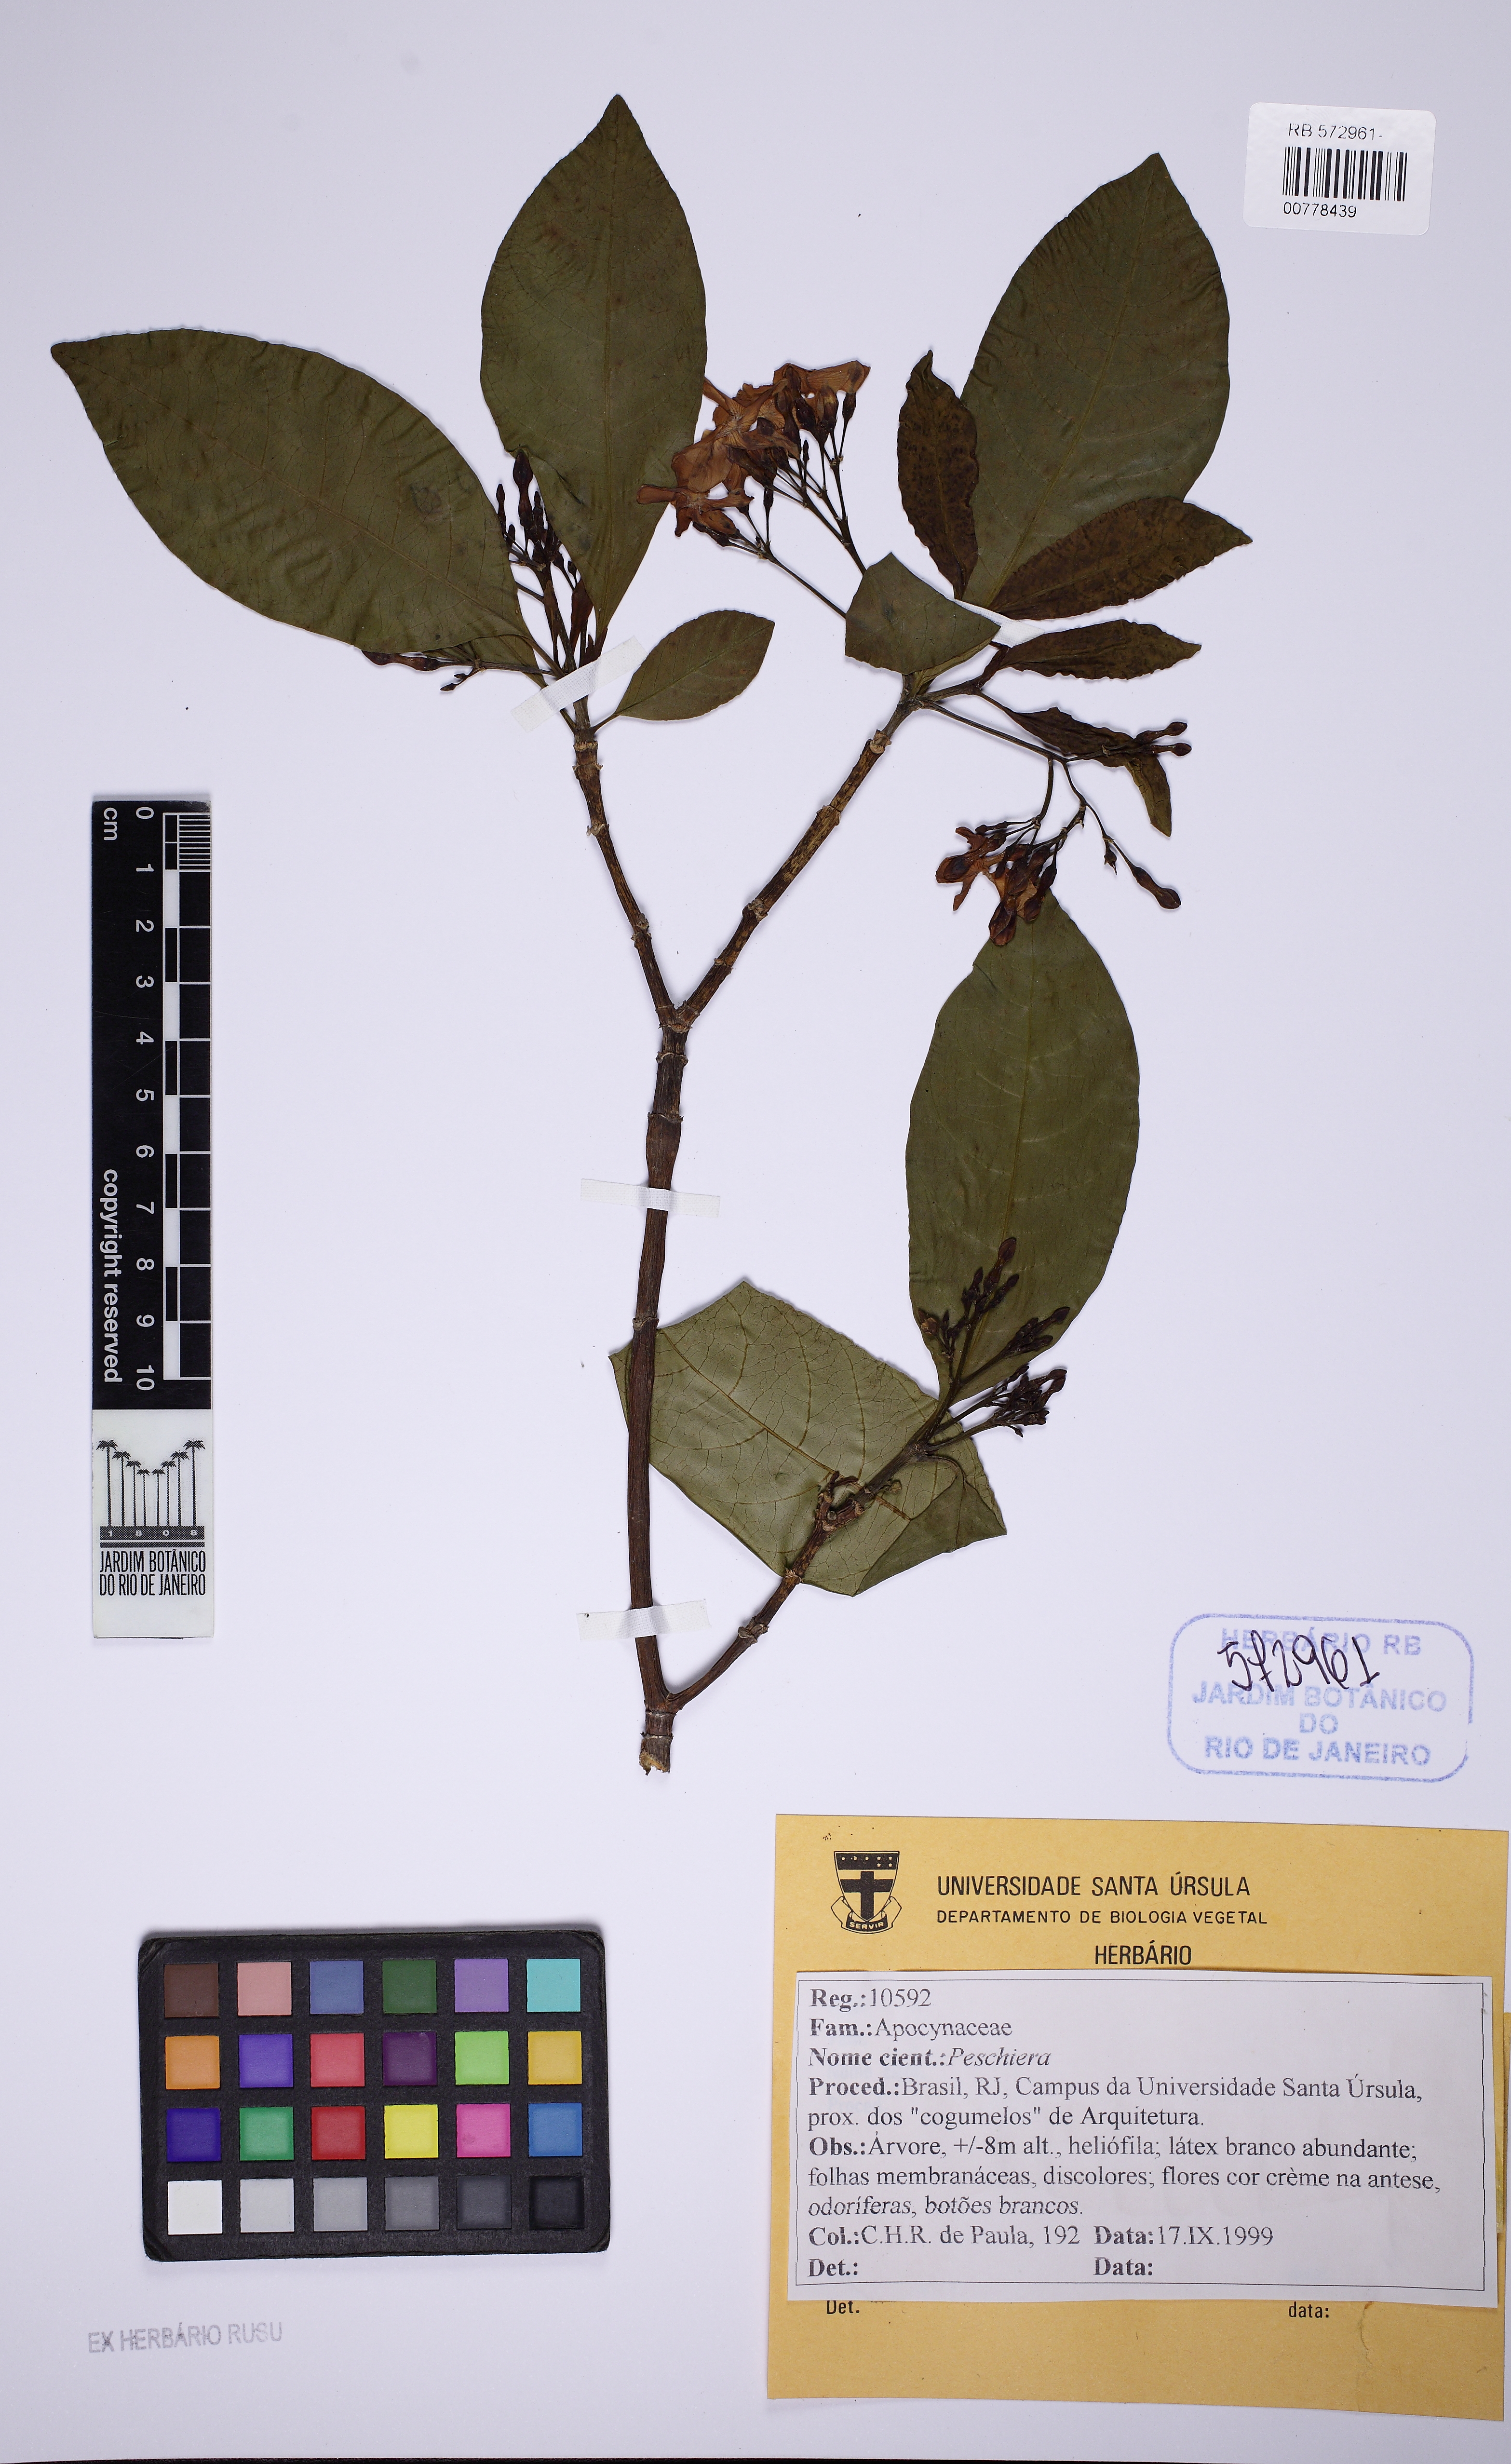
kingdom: Plantae
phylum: Tracheophyta
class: Magnoliopsida
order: Gentianales
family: Apocynaceae
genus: Tabernaemontana
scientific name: Tabernaemontana
